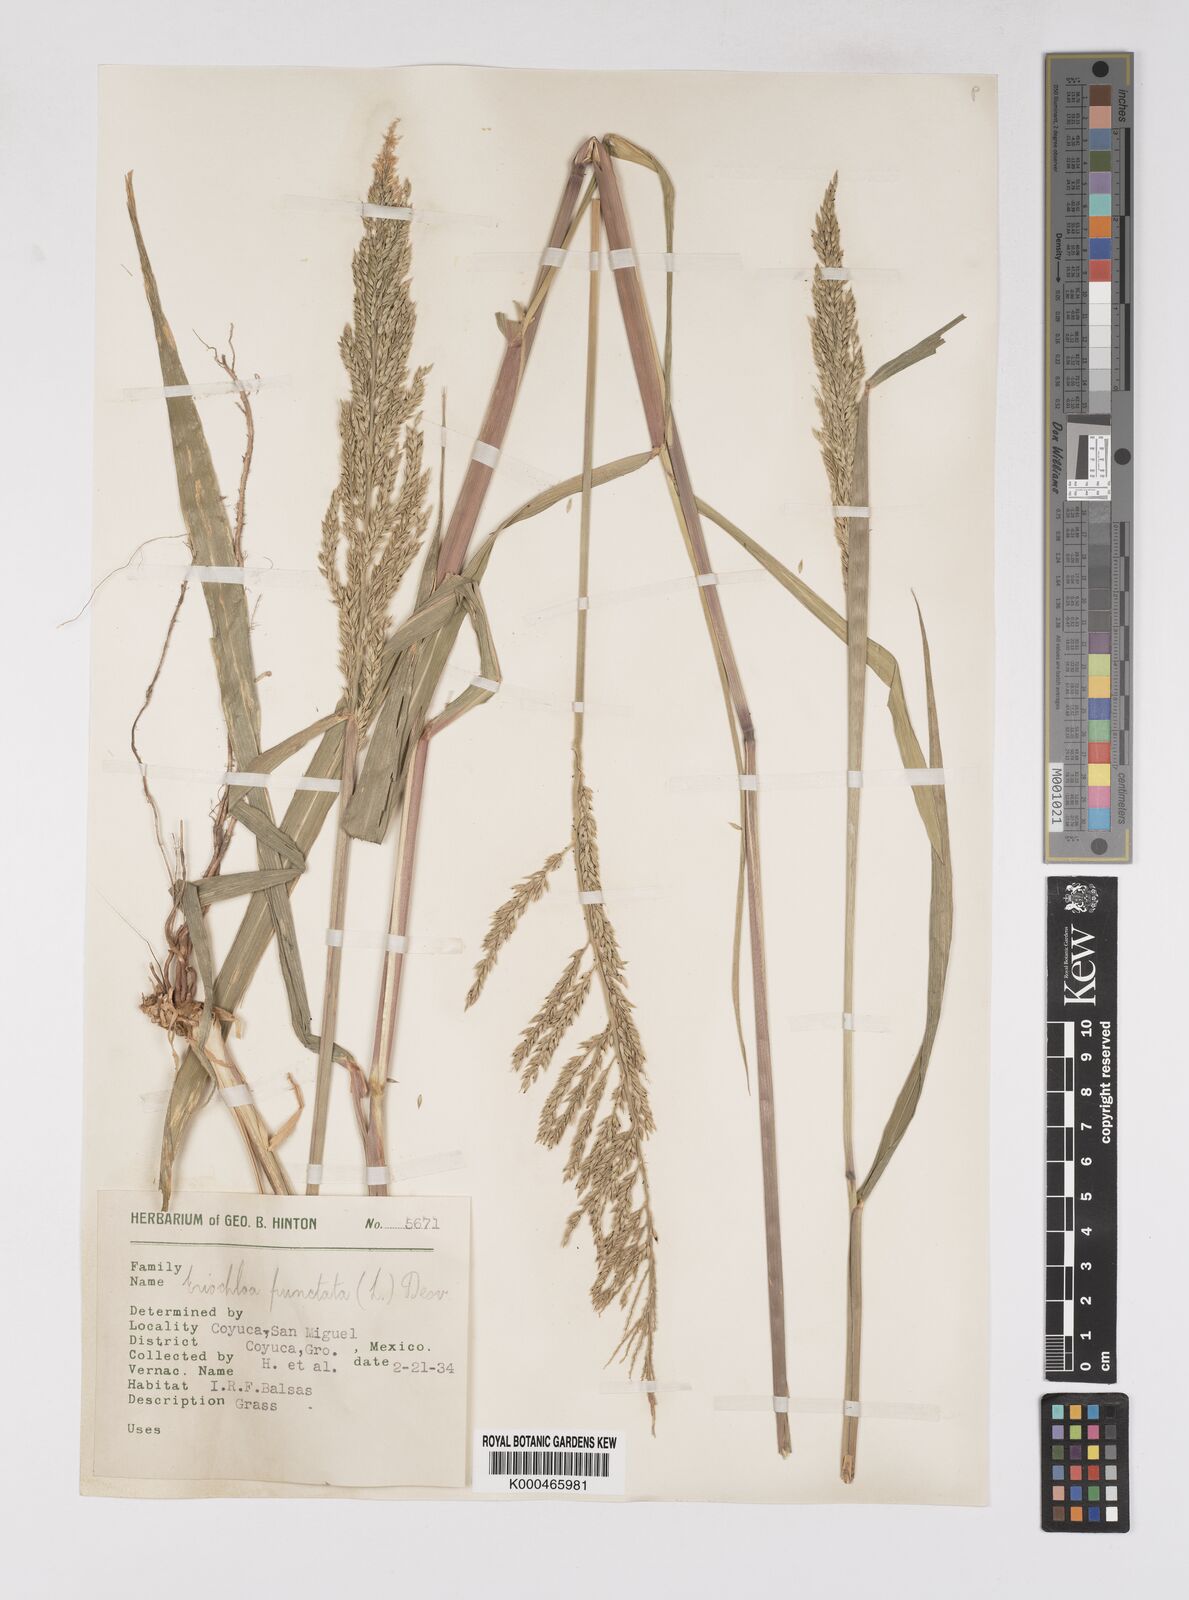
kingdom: Plantae
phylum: Tracheophyta
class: Liliopsida
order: Poales
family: Poaceae
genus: Eriochloa
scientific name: Eriochloa punctata
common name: Louisiana cupgrass
